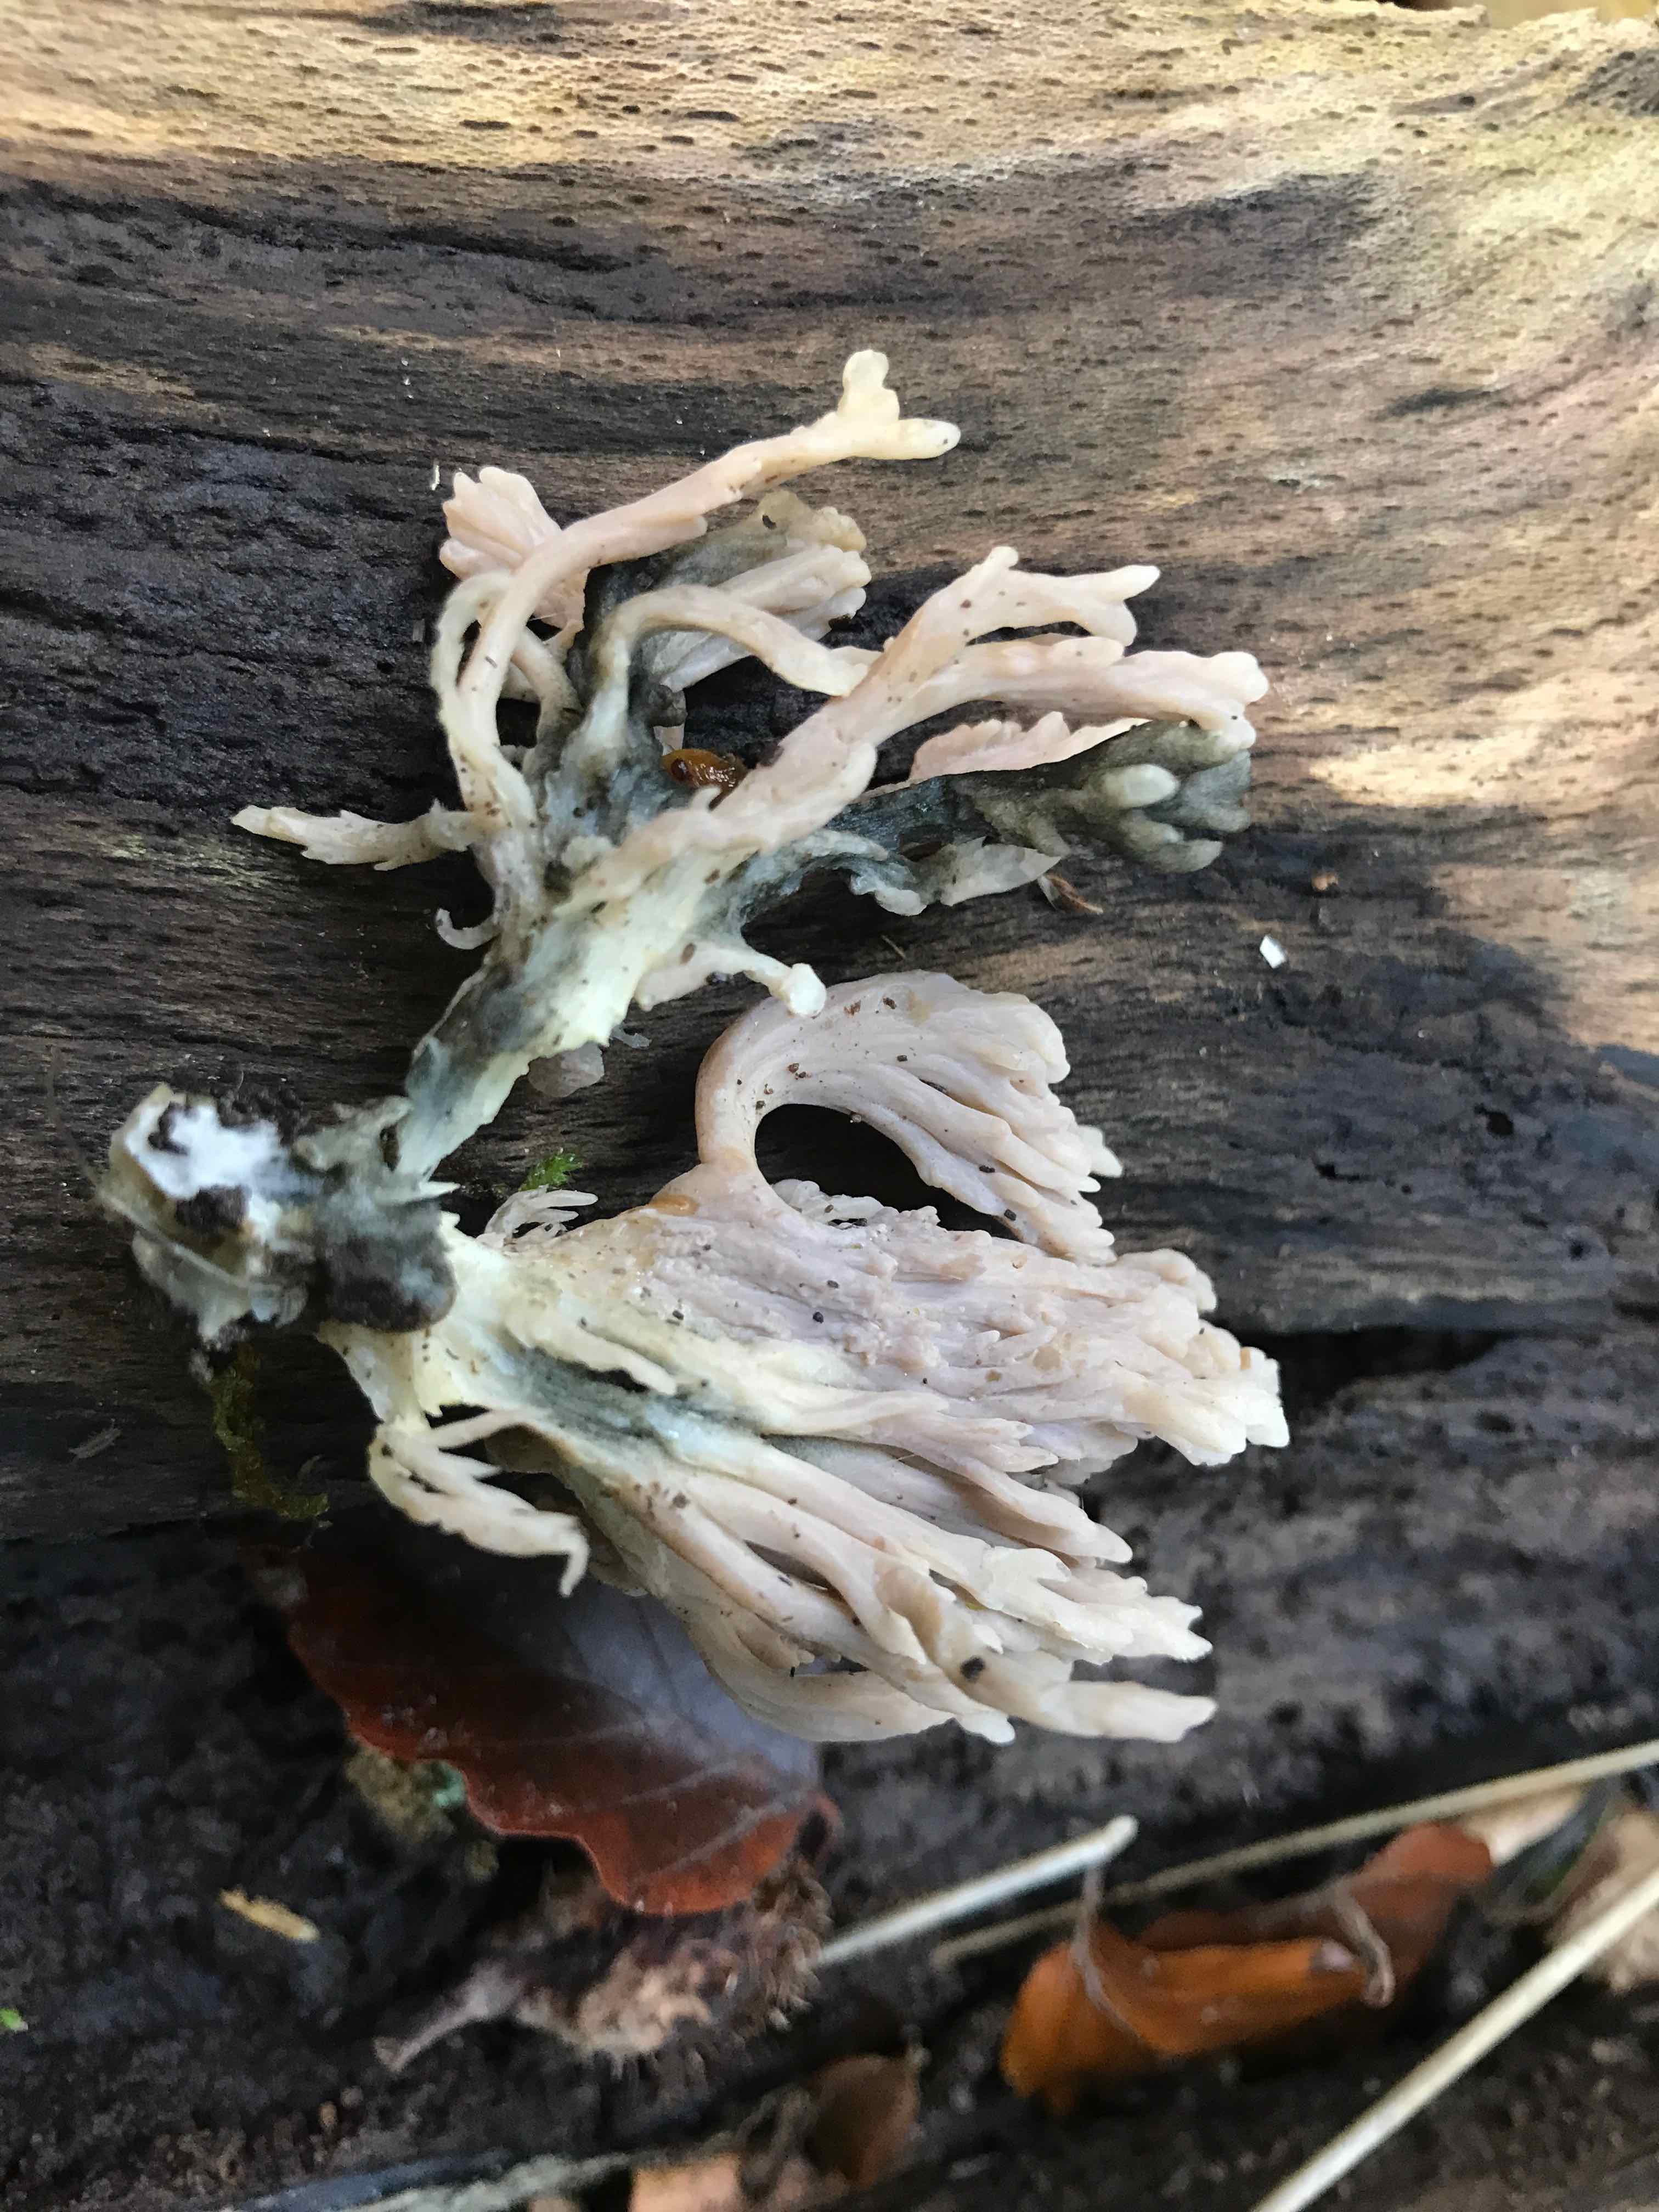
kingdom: Fungi
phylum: Ascomycota
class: Sordariomycetes
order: Sordariales
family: Helminthosphaeriaceae
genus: Helminthosphaeria
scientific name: Helminthosphaeria clavariarum
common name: trold-svampesnyltekerne
